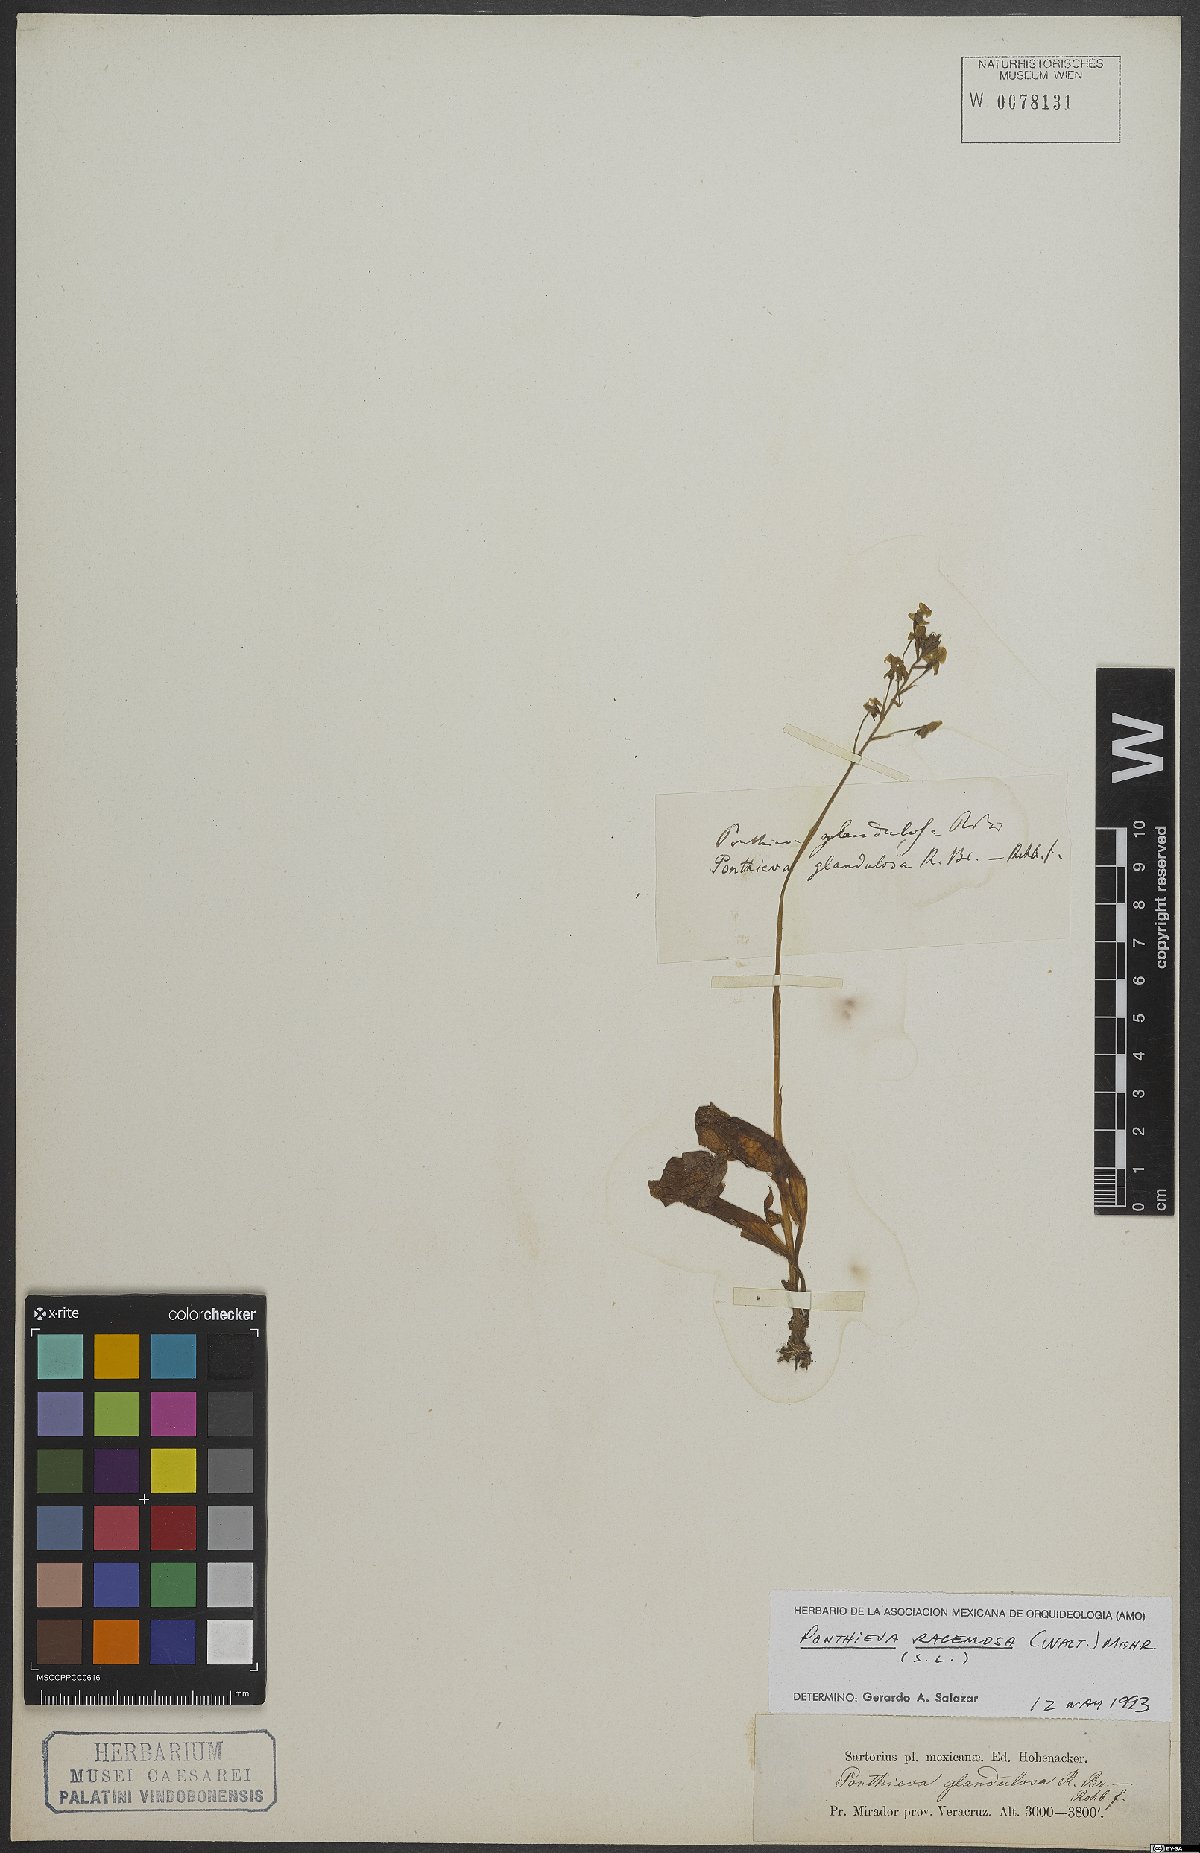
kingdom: Plantae
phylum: Tracheophyta
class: Liliopsida
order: Asparagales
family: Orchidaceae
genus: Ponthieva
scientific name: Ponthieva pulchella
